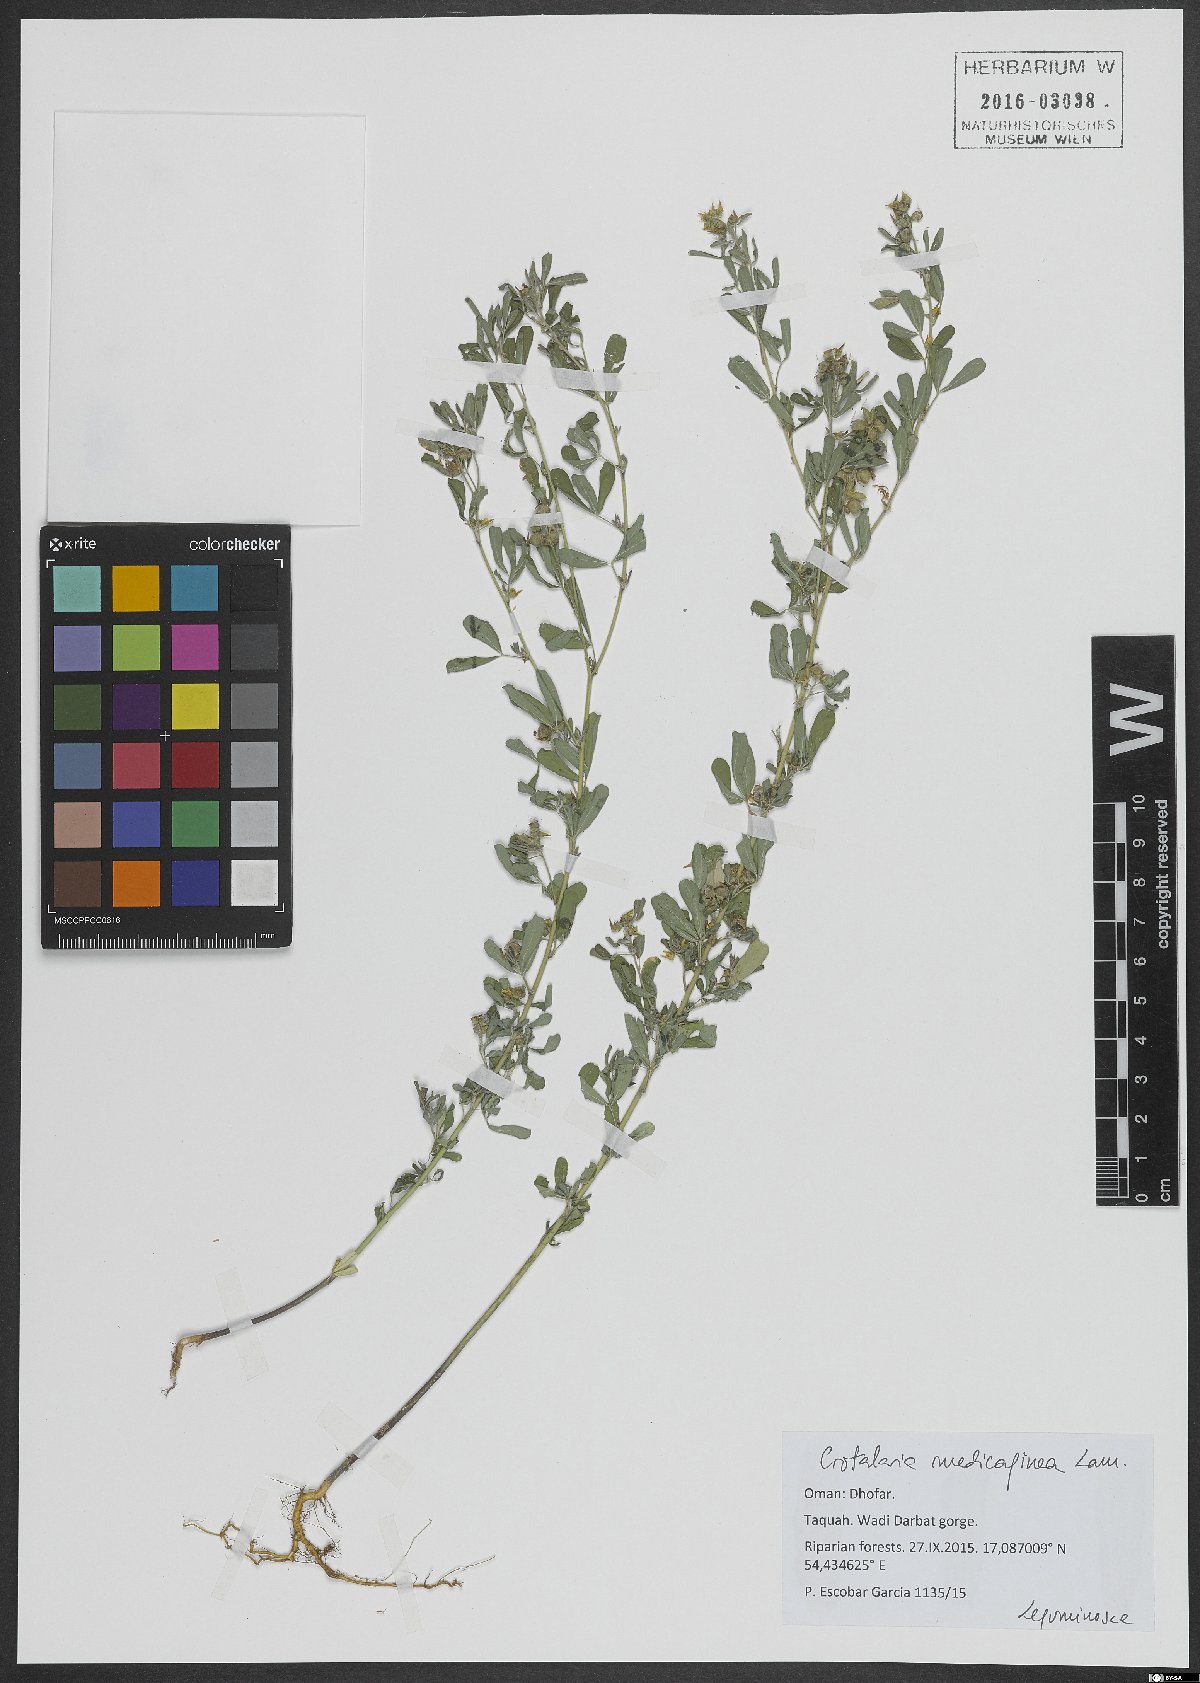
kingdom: Plantae
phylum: Tracheophyta
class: Magnoliopsida
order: Fabales
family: Fabaceae
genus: Crotalaria
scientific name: Crotalaria medicaginea
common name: Trefoil rattlepod
